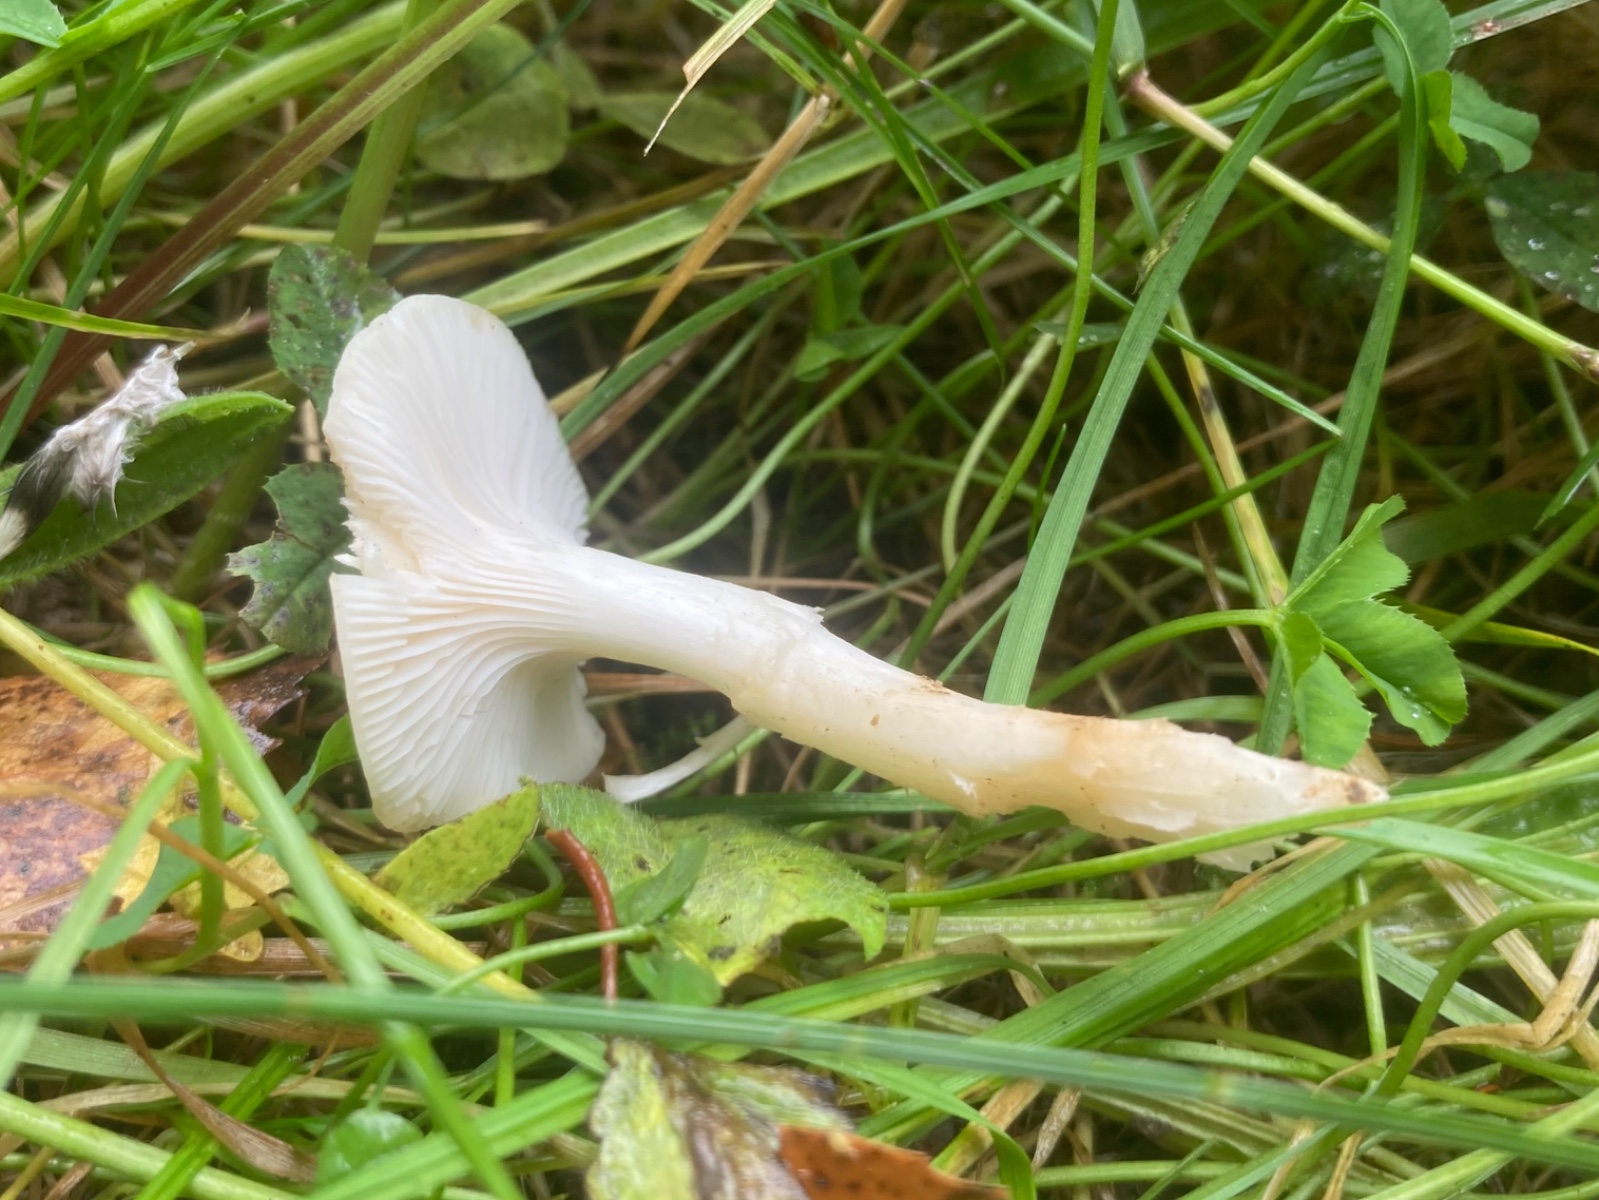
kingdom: Fungi
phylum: Basidiomycota
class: Agaricomycetes
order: Agaricales
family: Hygrophoraceae
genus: Cuphophyllus
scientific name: Cuphophyllus virgineus
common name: snehvid vokshat
